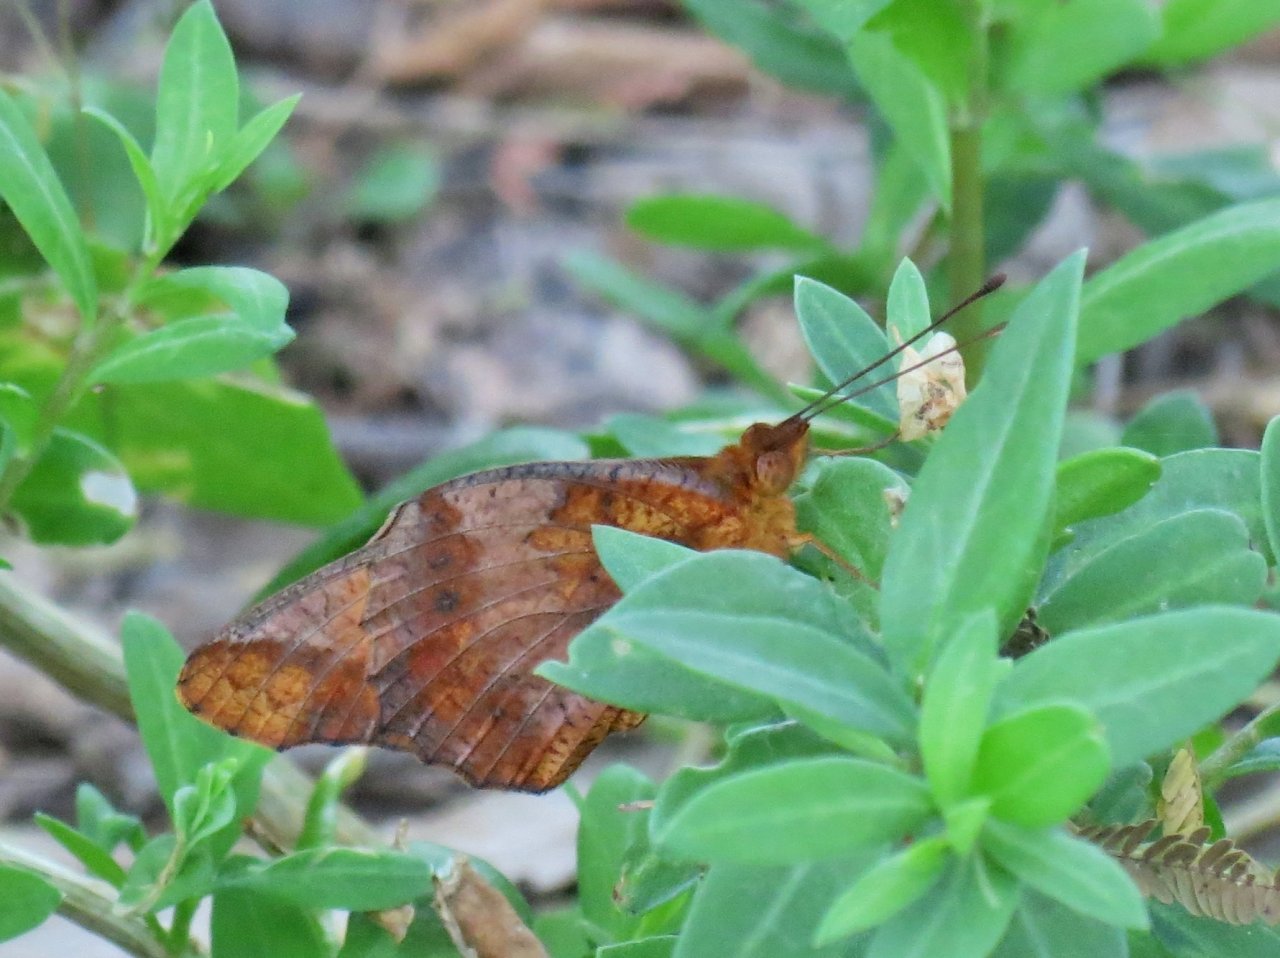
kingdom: Animalia
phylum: Arthropoda
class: Insecta
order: Lepidoptera
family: Nymphalidae
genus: Euptoieta
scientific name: Euptoieta hegesia
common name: Mexican Fritillary
